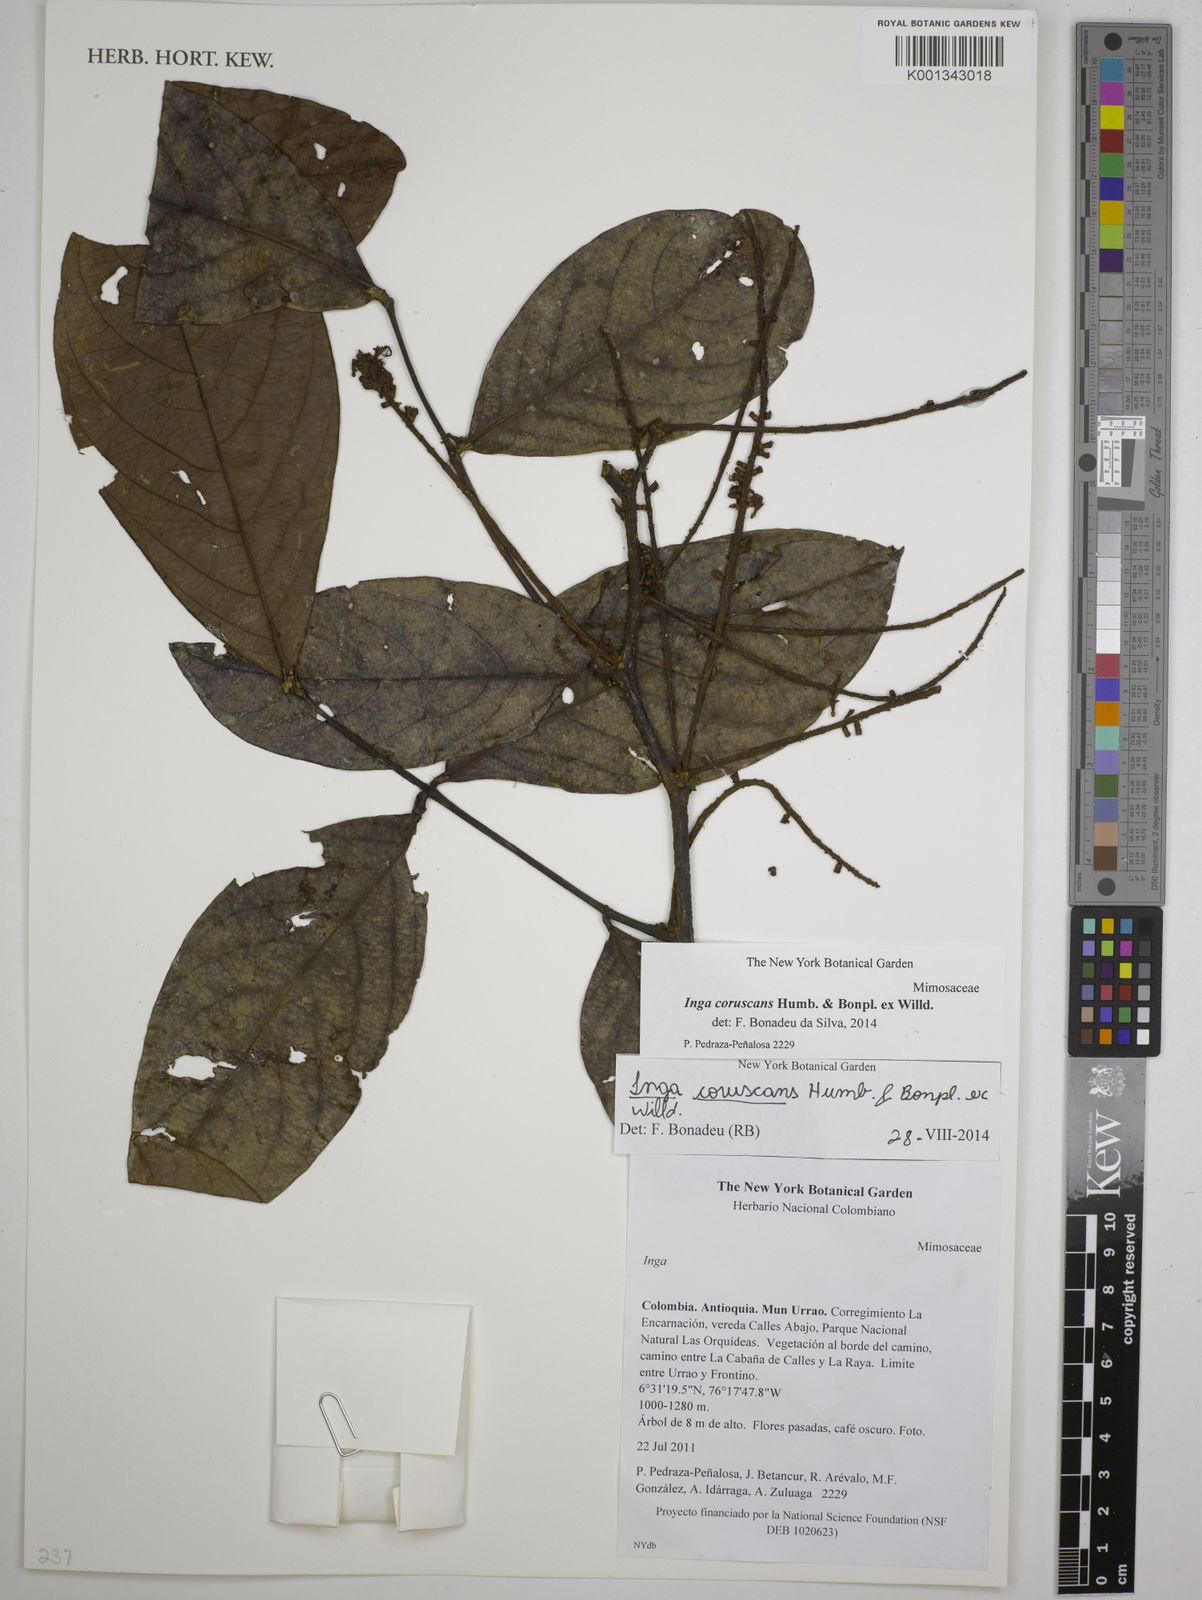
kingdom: Plantae
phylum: Tracheophyta
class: Magnoliopsida
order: Fabales
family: Fabaceae
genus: Inga
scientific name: Inga coruscans
